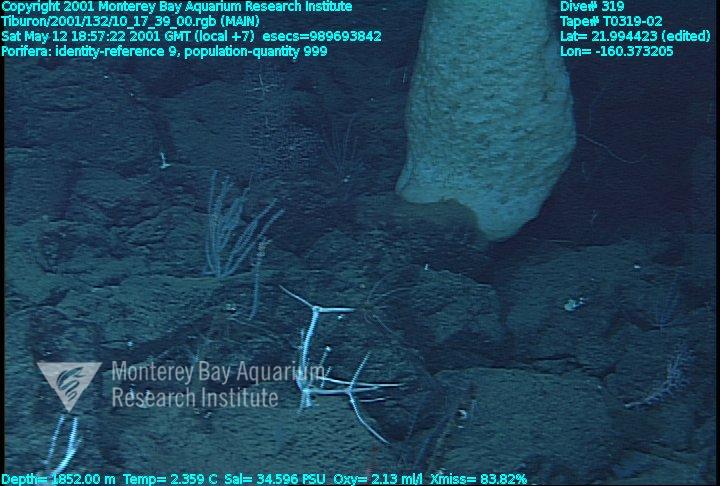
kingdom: Animalia
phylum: Porifera
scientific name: Porifera
